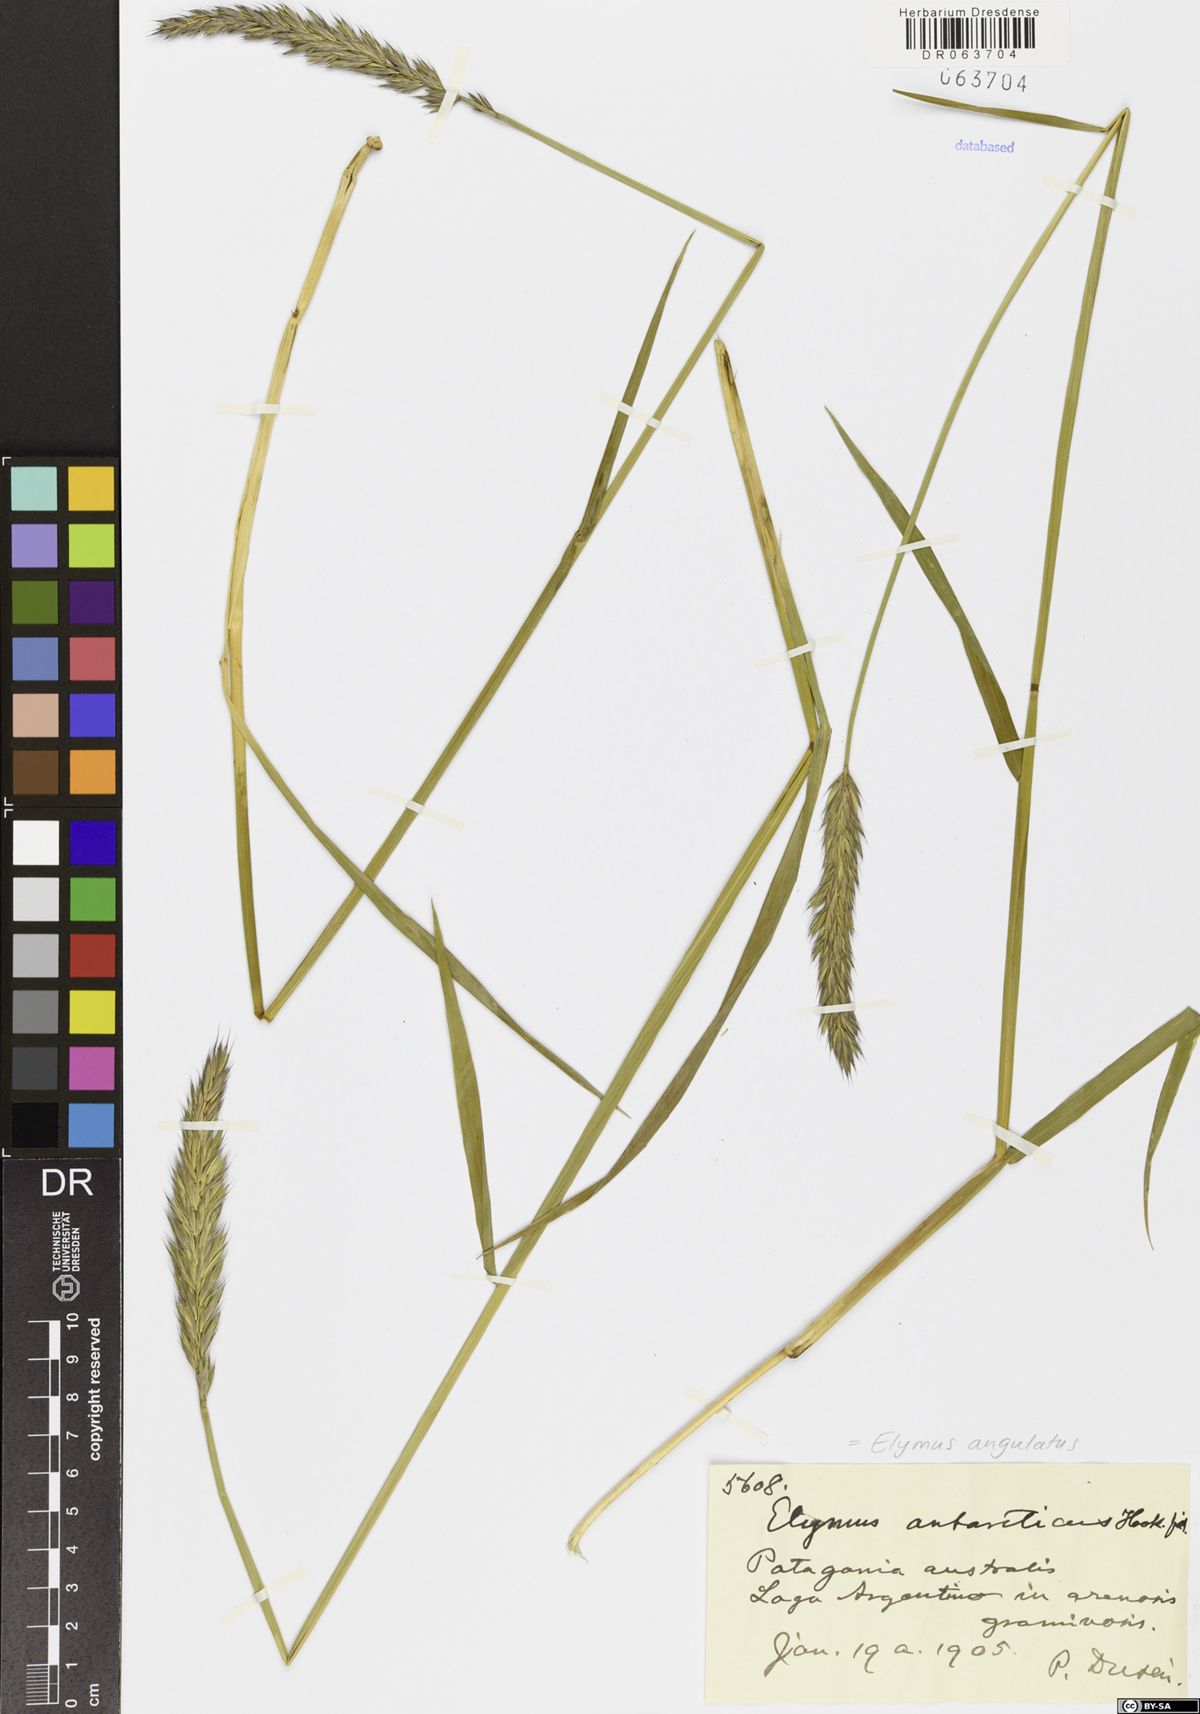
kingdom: Plantae
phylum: Tracheophyta
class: Liliopsida
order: Poales
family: Poaceae
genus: Elymus
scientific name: Elymus angulatus
